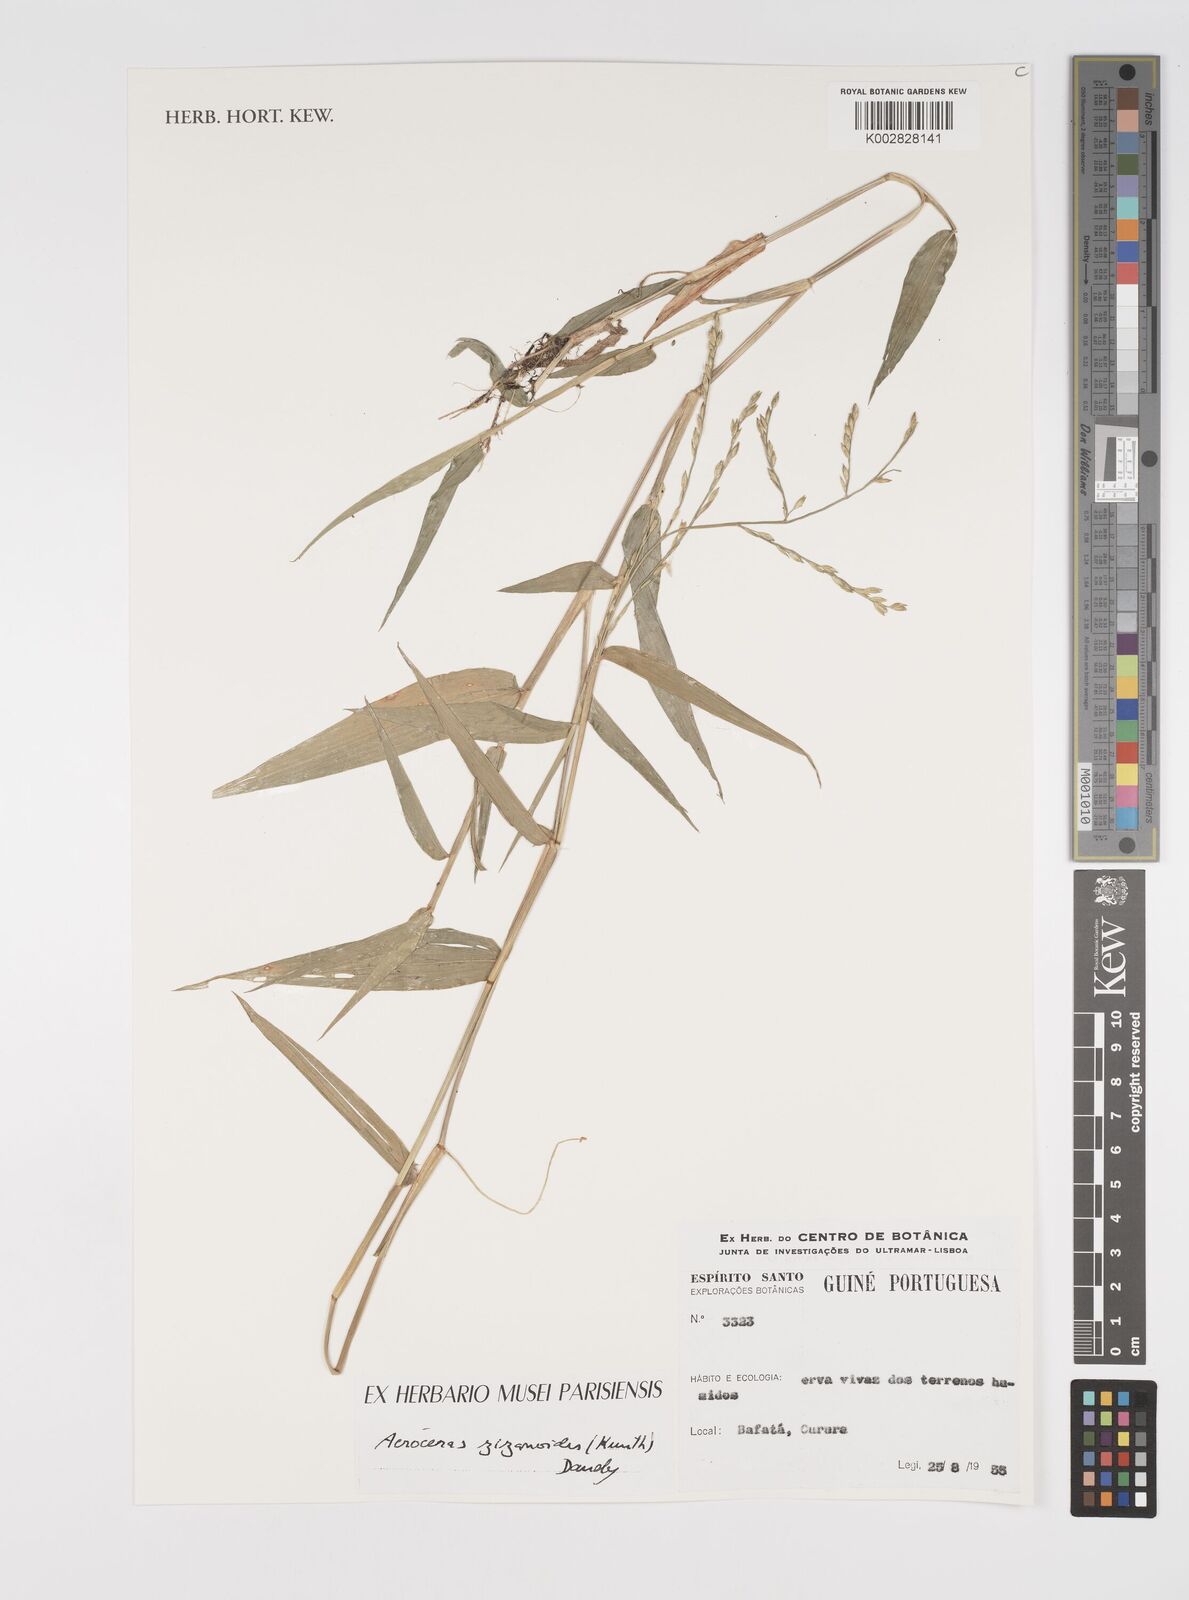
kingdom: Plantae
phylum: Tracheophyta
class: Liliopsida
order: Poales
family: Poaceae
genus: Acroceras
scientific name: Acroceras zizanioides
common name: Oat grass
